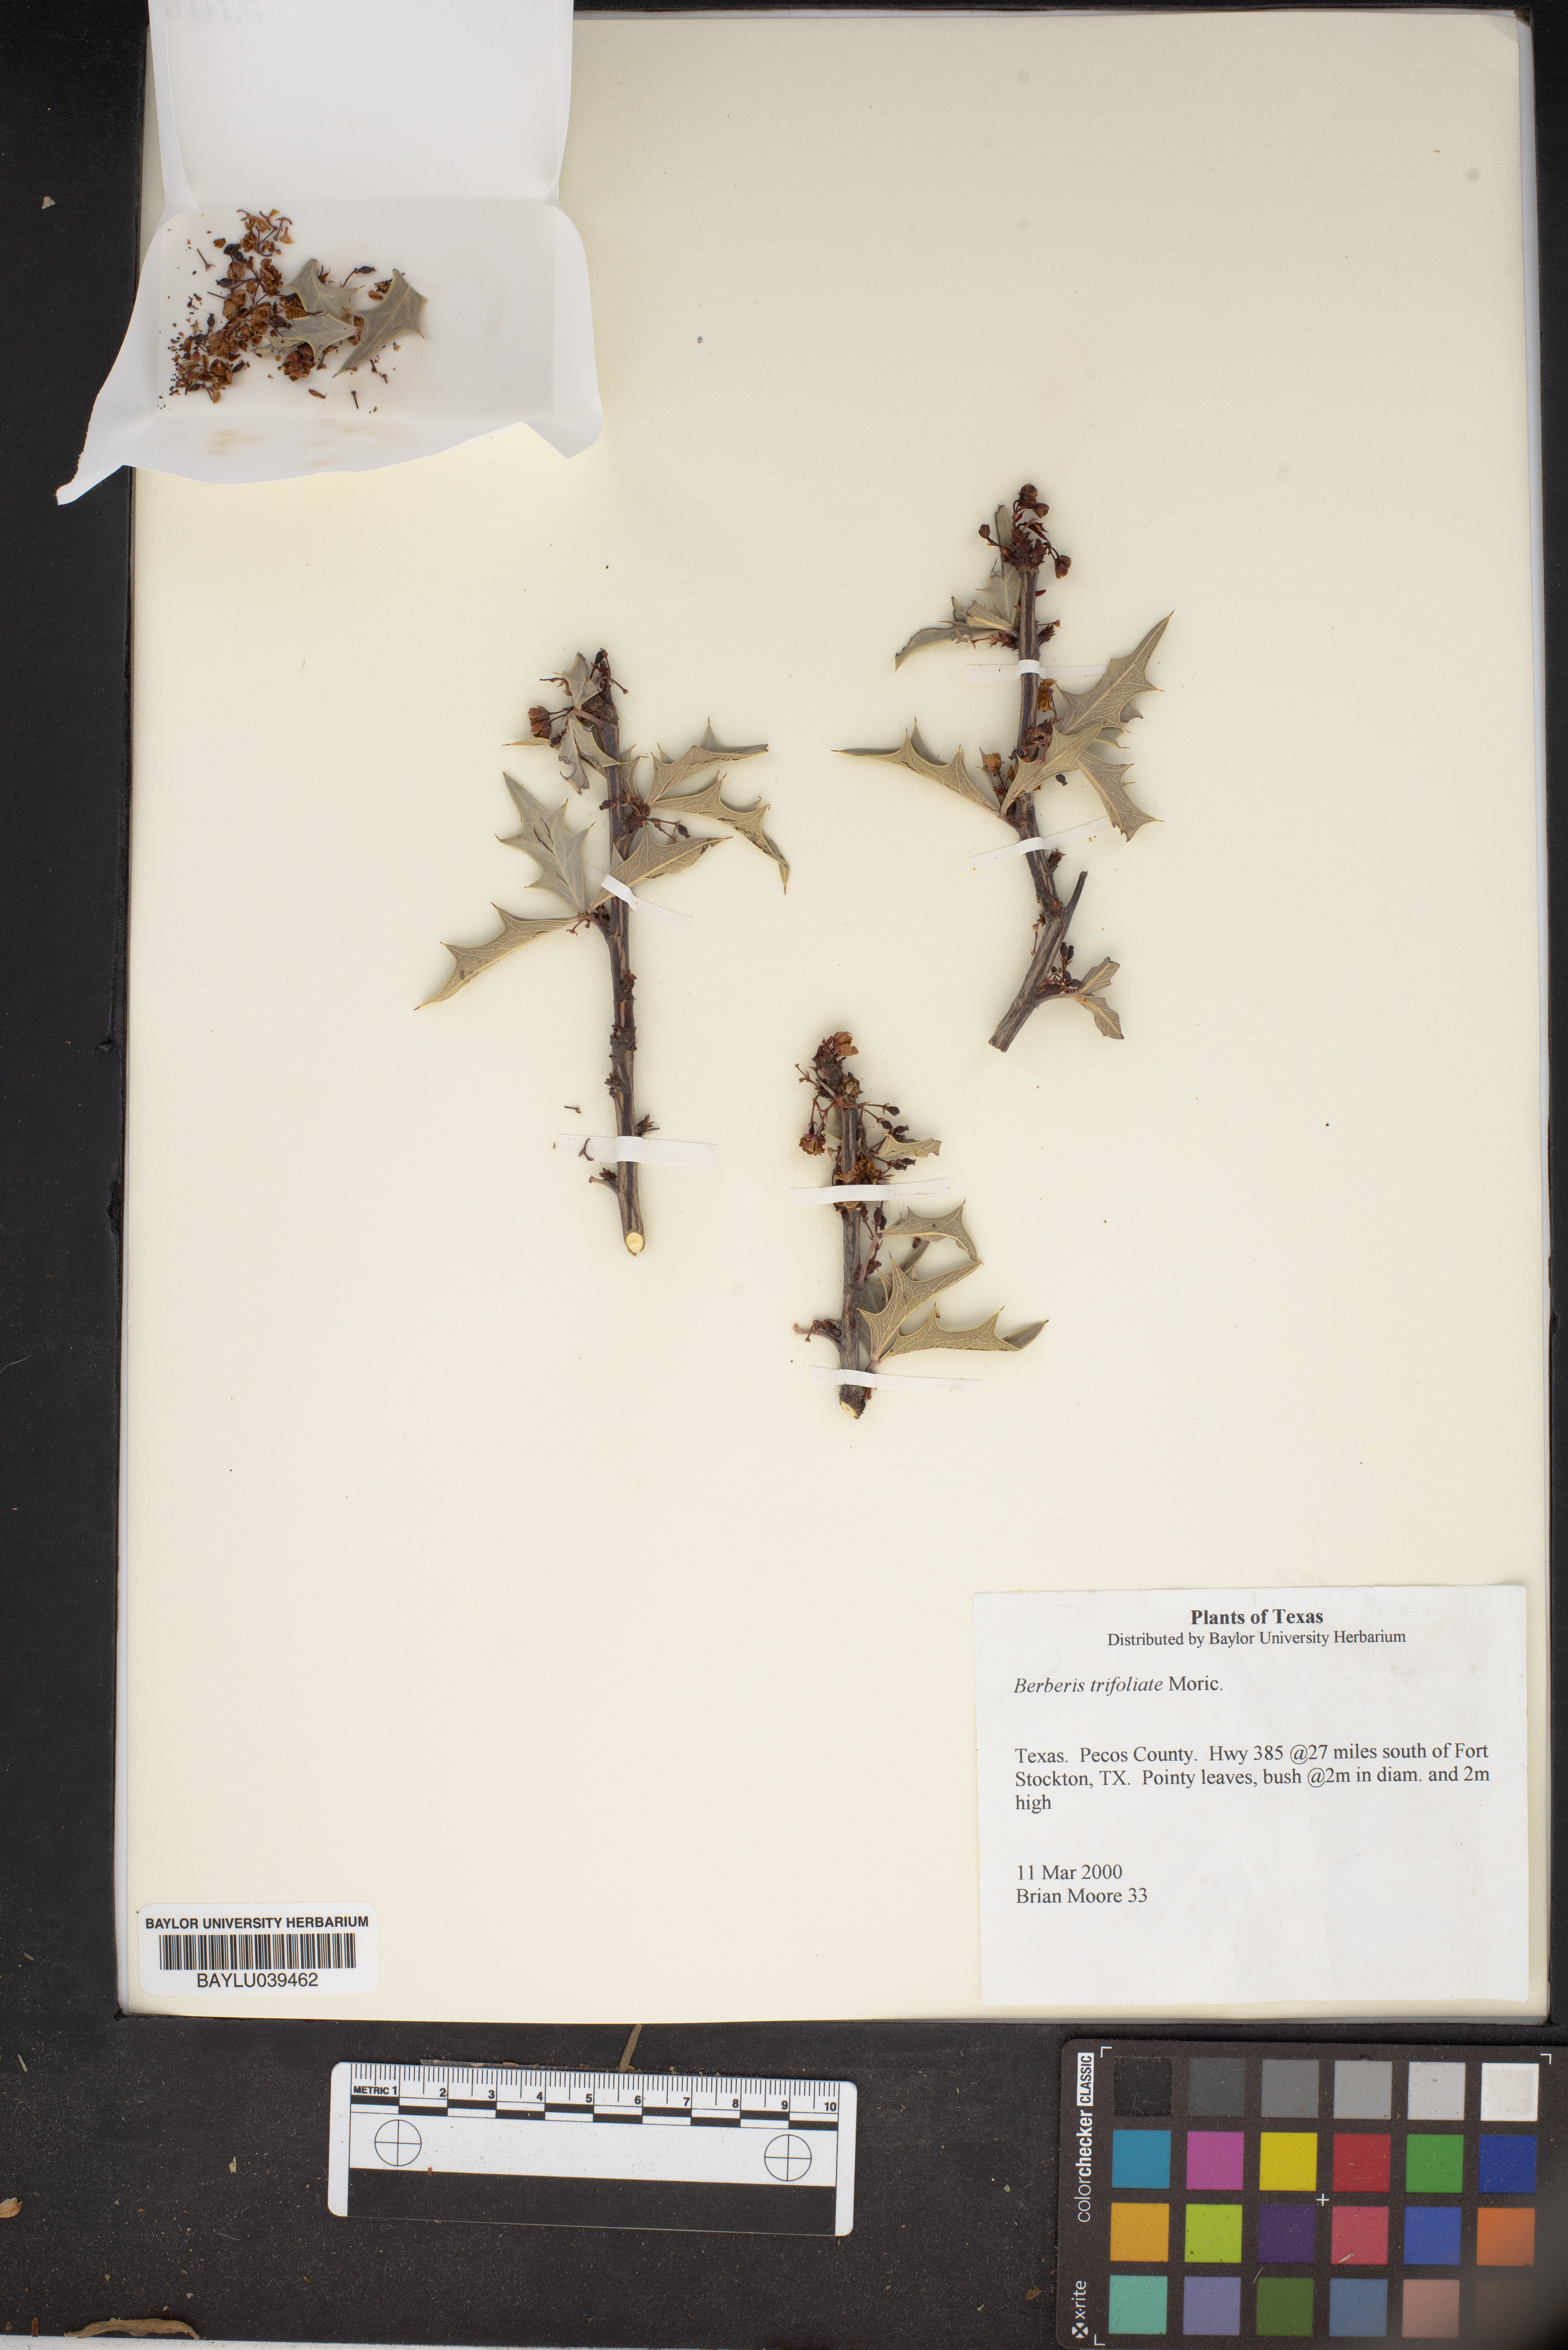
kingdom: Plantae
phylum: Tracheophyta
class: Magnoliopsida
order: Ranunculales
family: Berberidaceae
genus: Alloberberis
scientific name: Alloberberis fremontii
